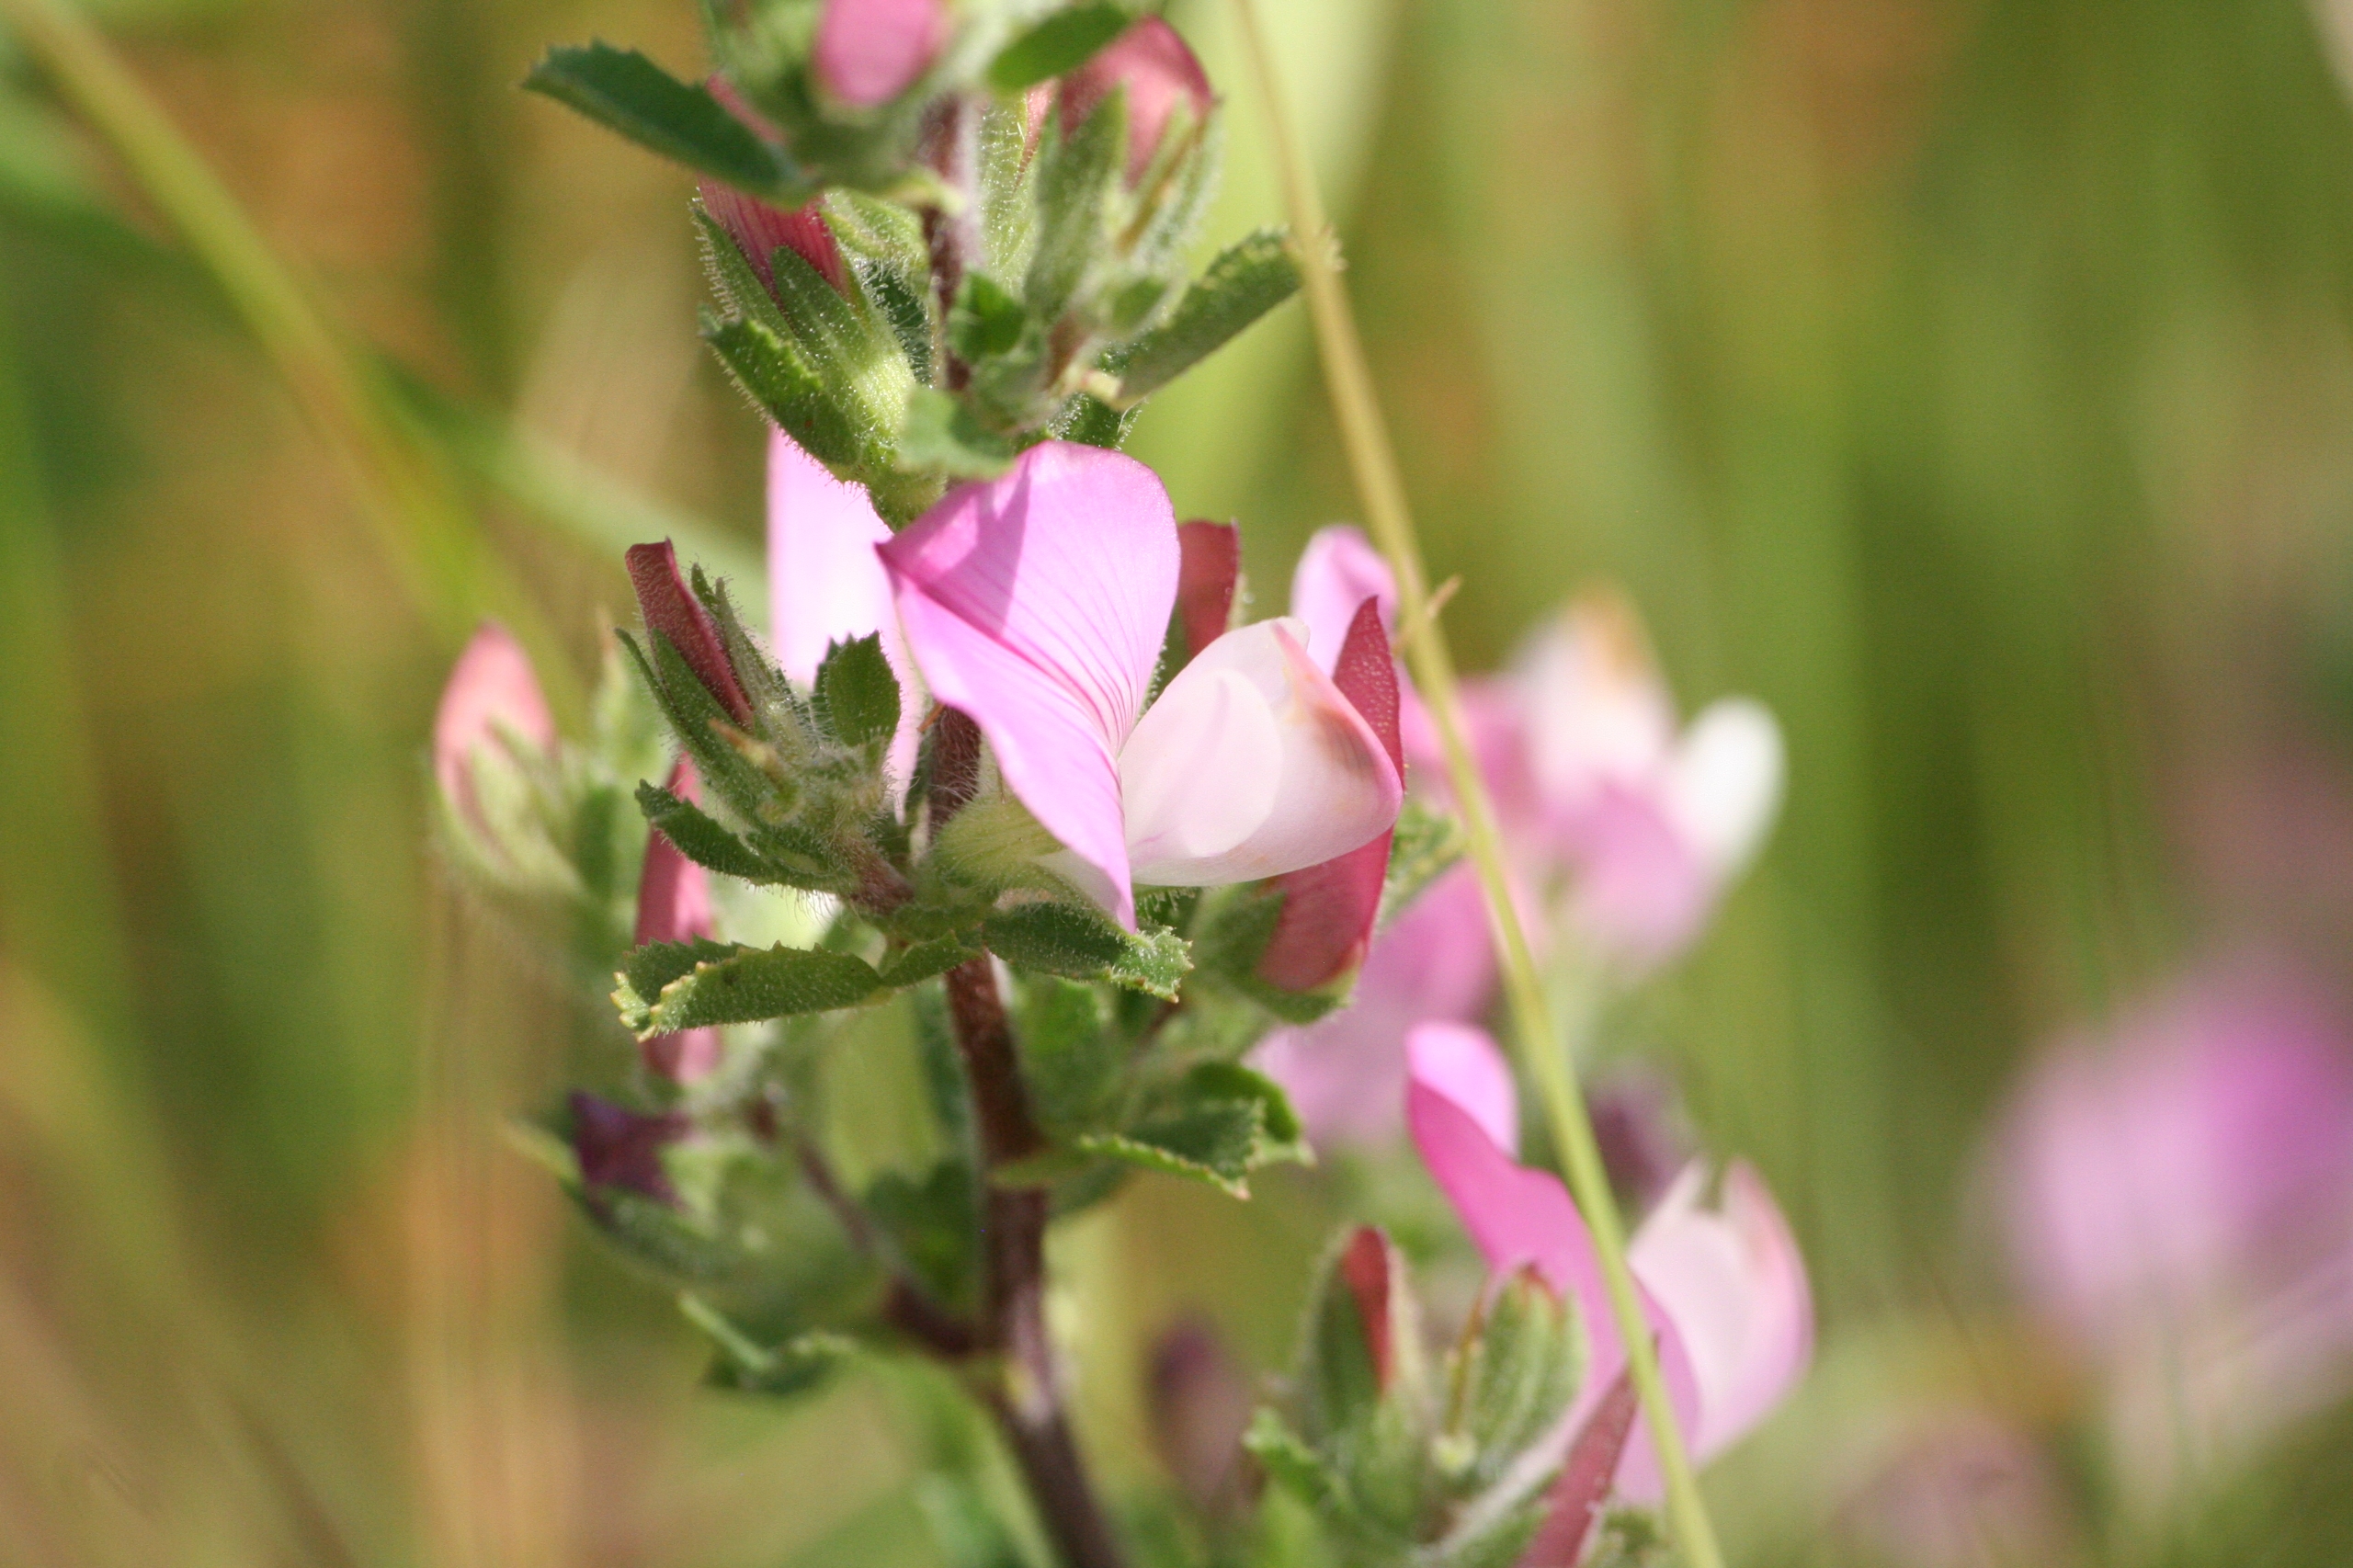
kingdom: Plantae
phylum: Tracheophyta
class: Magnoliopsida
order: Fabales
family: Fabaceae
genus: Ononis
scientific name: Ononis spinosa
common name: Krageklo
